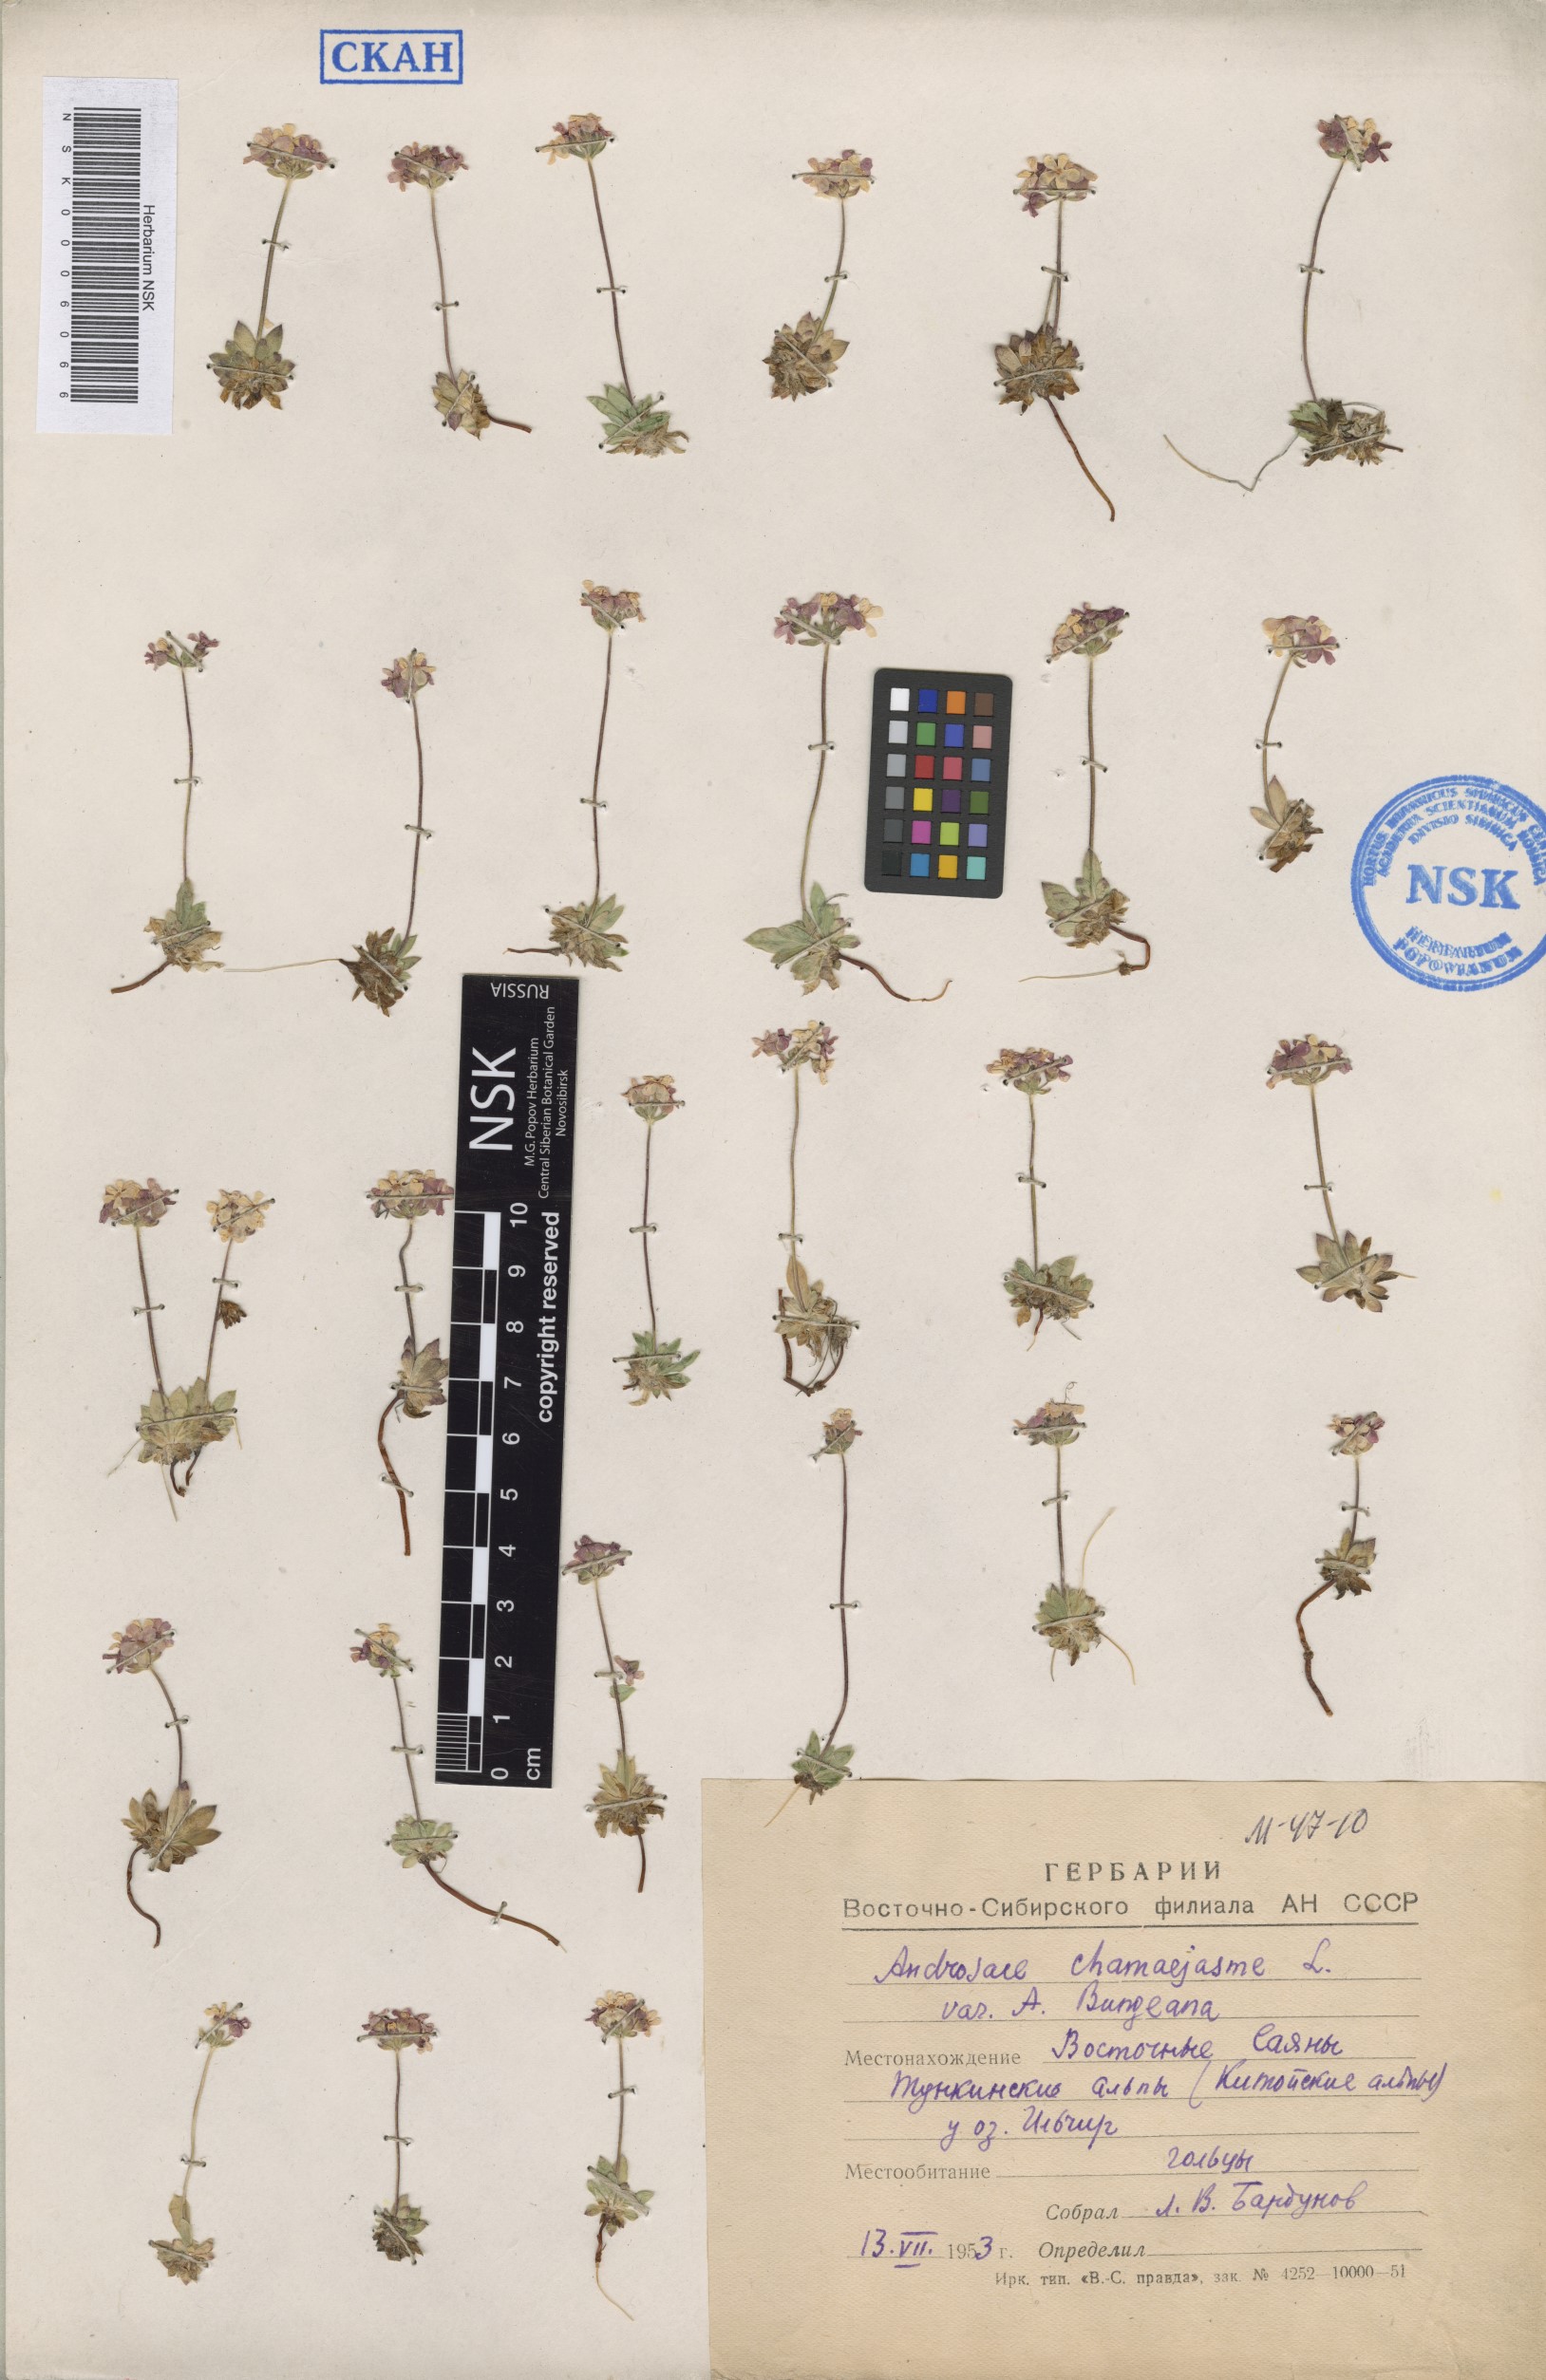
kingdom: Plantae
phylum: Tracheophyta
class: Magnoliopsida
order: Ericales
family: Primulaceae
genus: Androsace
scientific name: Androsace bungeana
